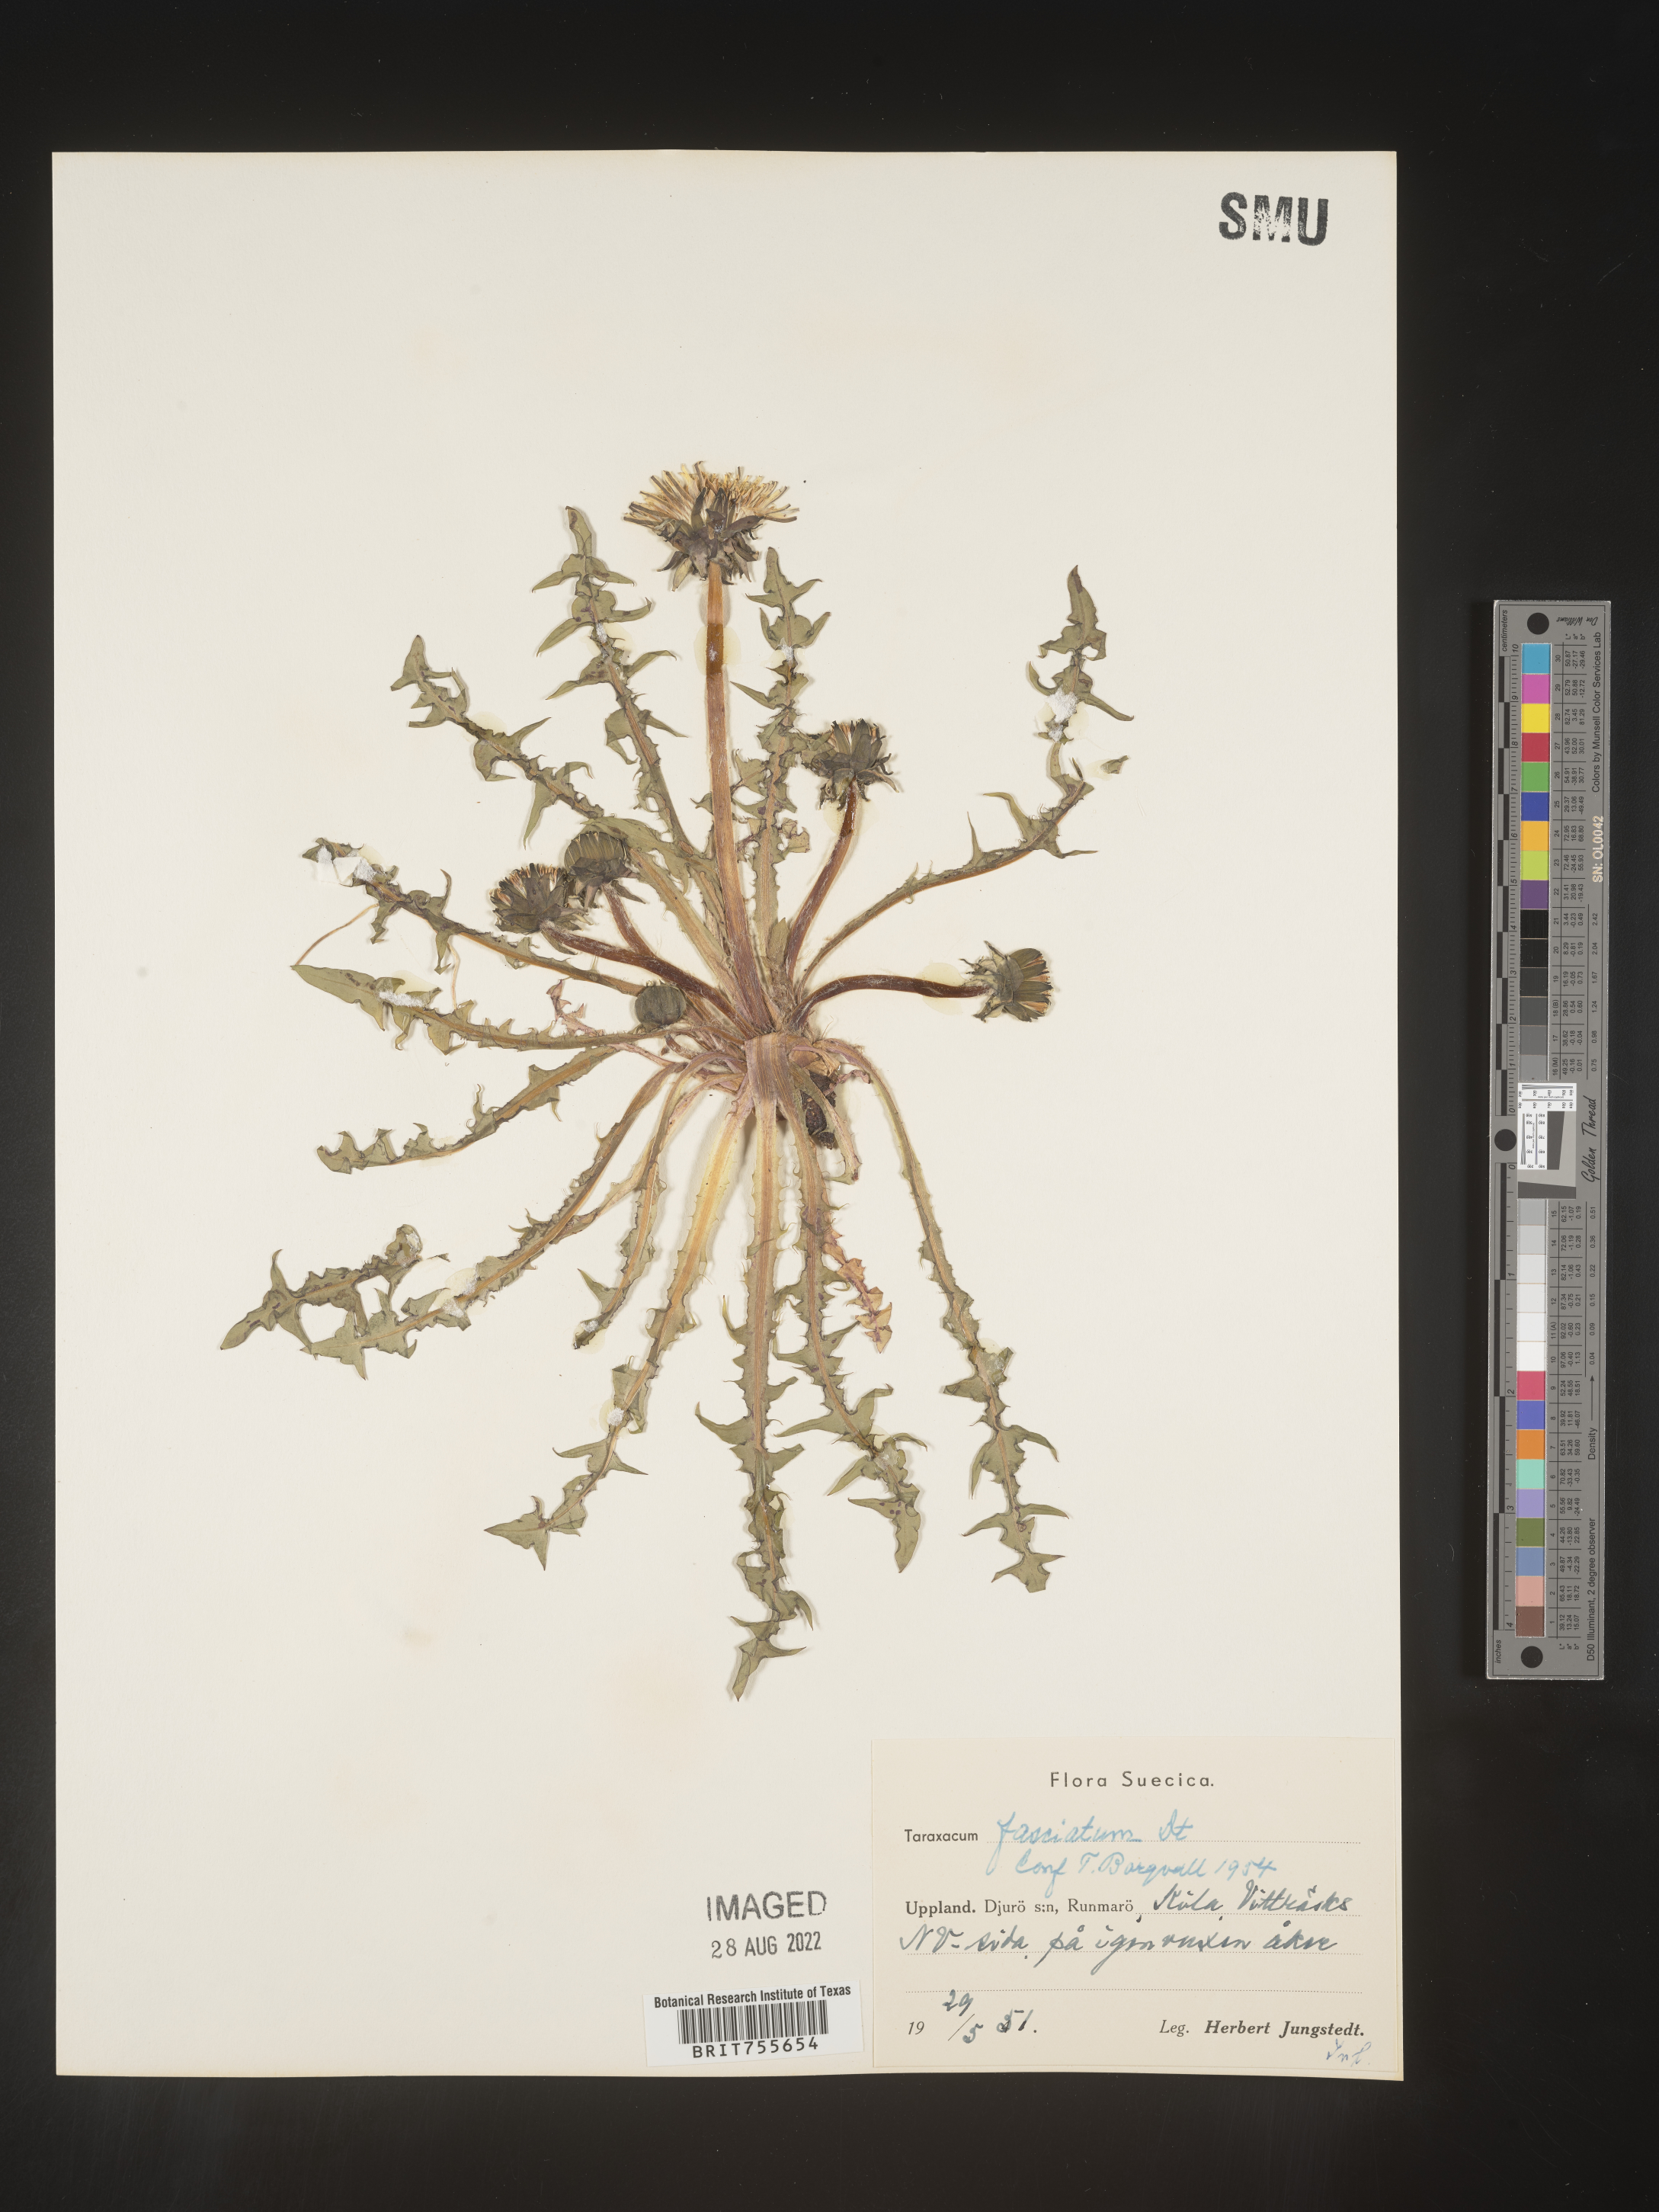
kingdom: Plantae
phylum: Tracheophyta
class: Magnoliopsida
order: Asterales
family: Asteraceae
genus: Taraxacum
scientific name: Taraxacum
